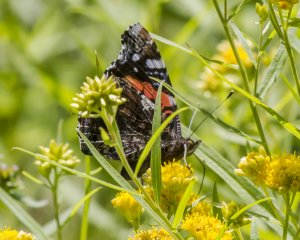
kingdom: Animalia
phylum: Arthropoda
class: Insecta
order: Lepidoptera
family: Nymphalidae
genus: Vanessa
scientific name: Vanessa atalanta
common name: Red Admiral
